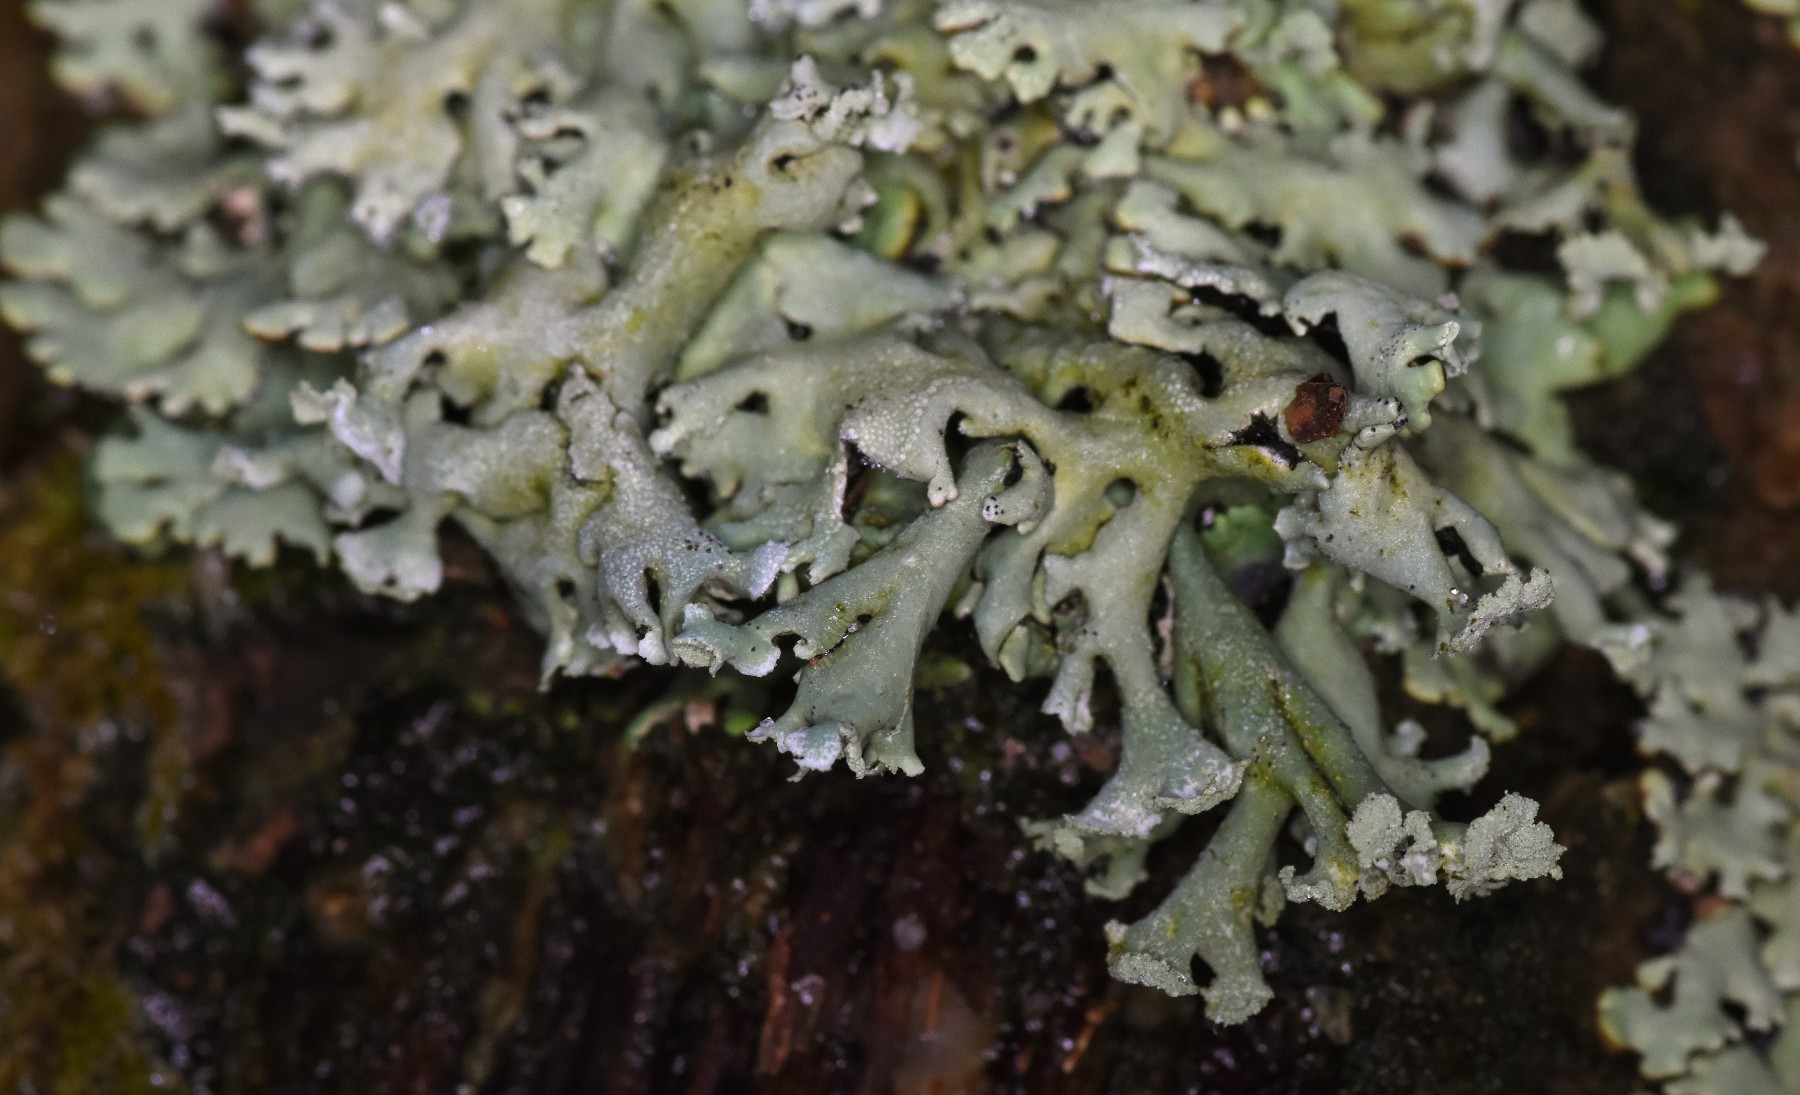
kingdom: Fungi
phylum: Ascomycota
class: Lecanoromycetes
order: Lecanorales
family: Parmeliaceae
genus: Hypogymnia
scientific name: Hypogymnia physodes
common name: almindelig kvistlav
